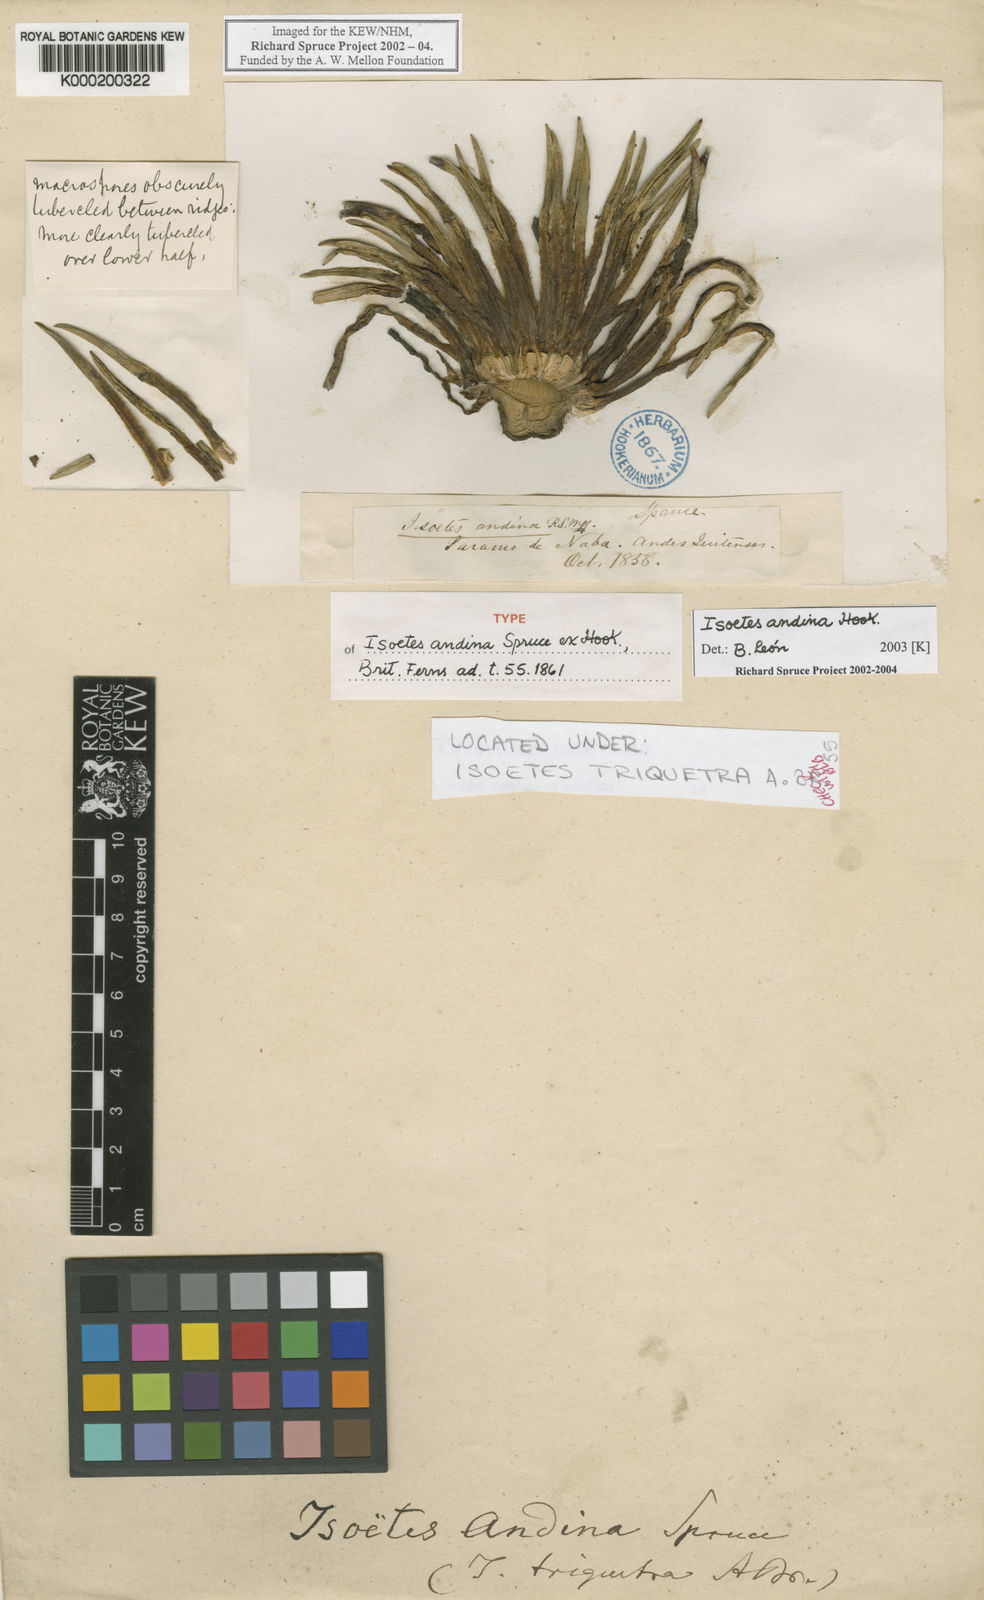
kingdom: Plantae
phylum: Tracheophyta
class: Lycopodiopsida
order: Isoetales
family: Isoetaceae
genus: Isoetes
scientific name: Isoetes andina
